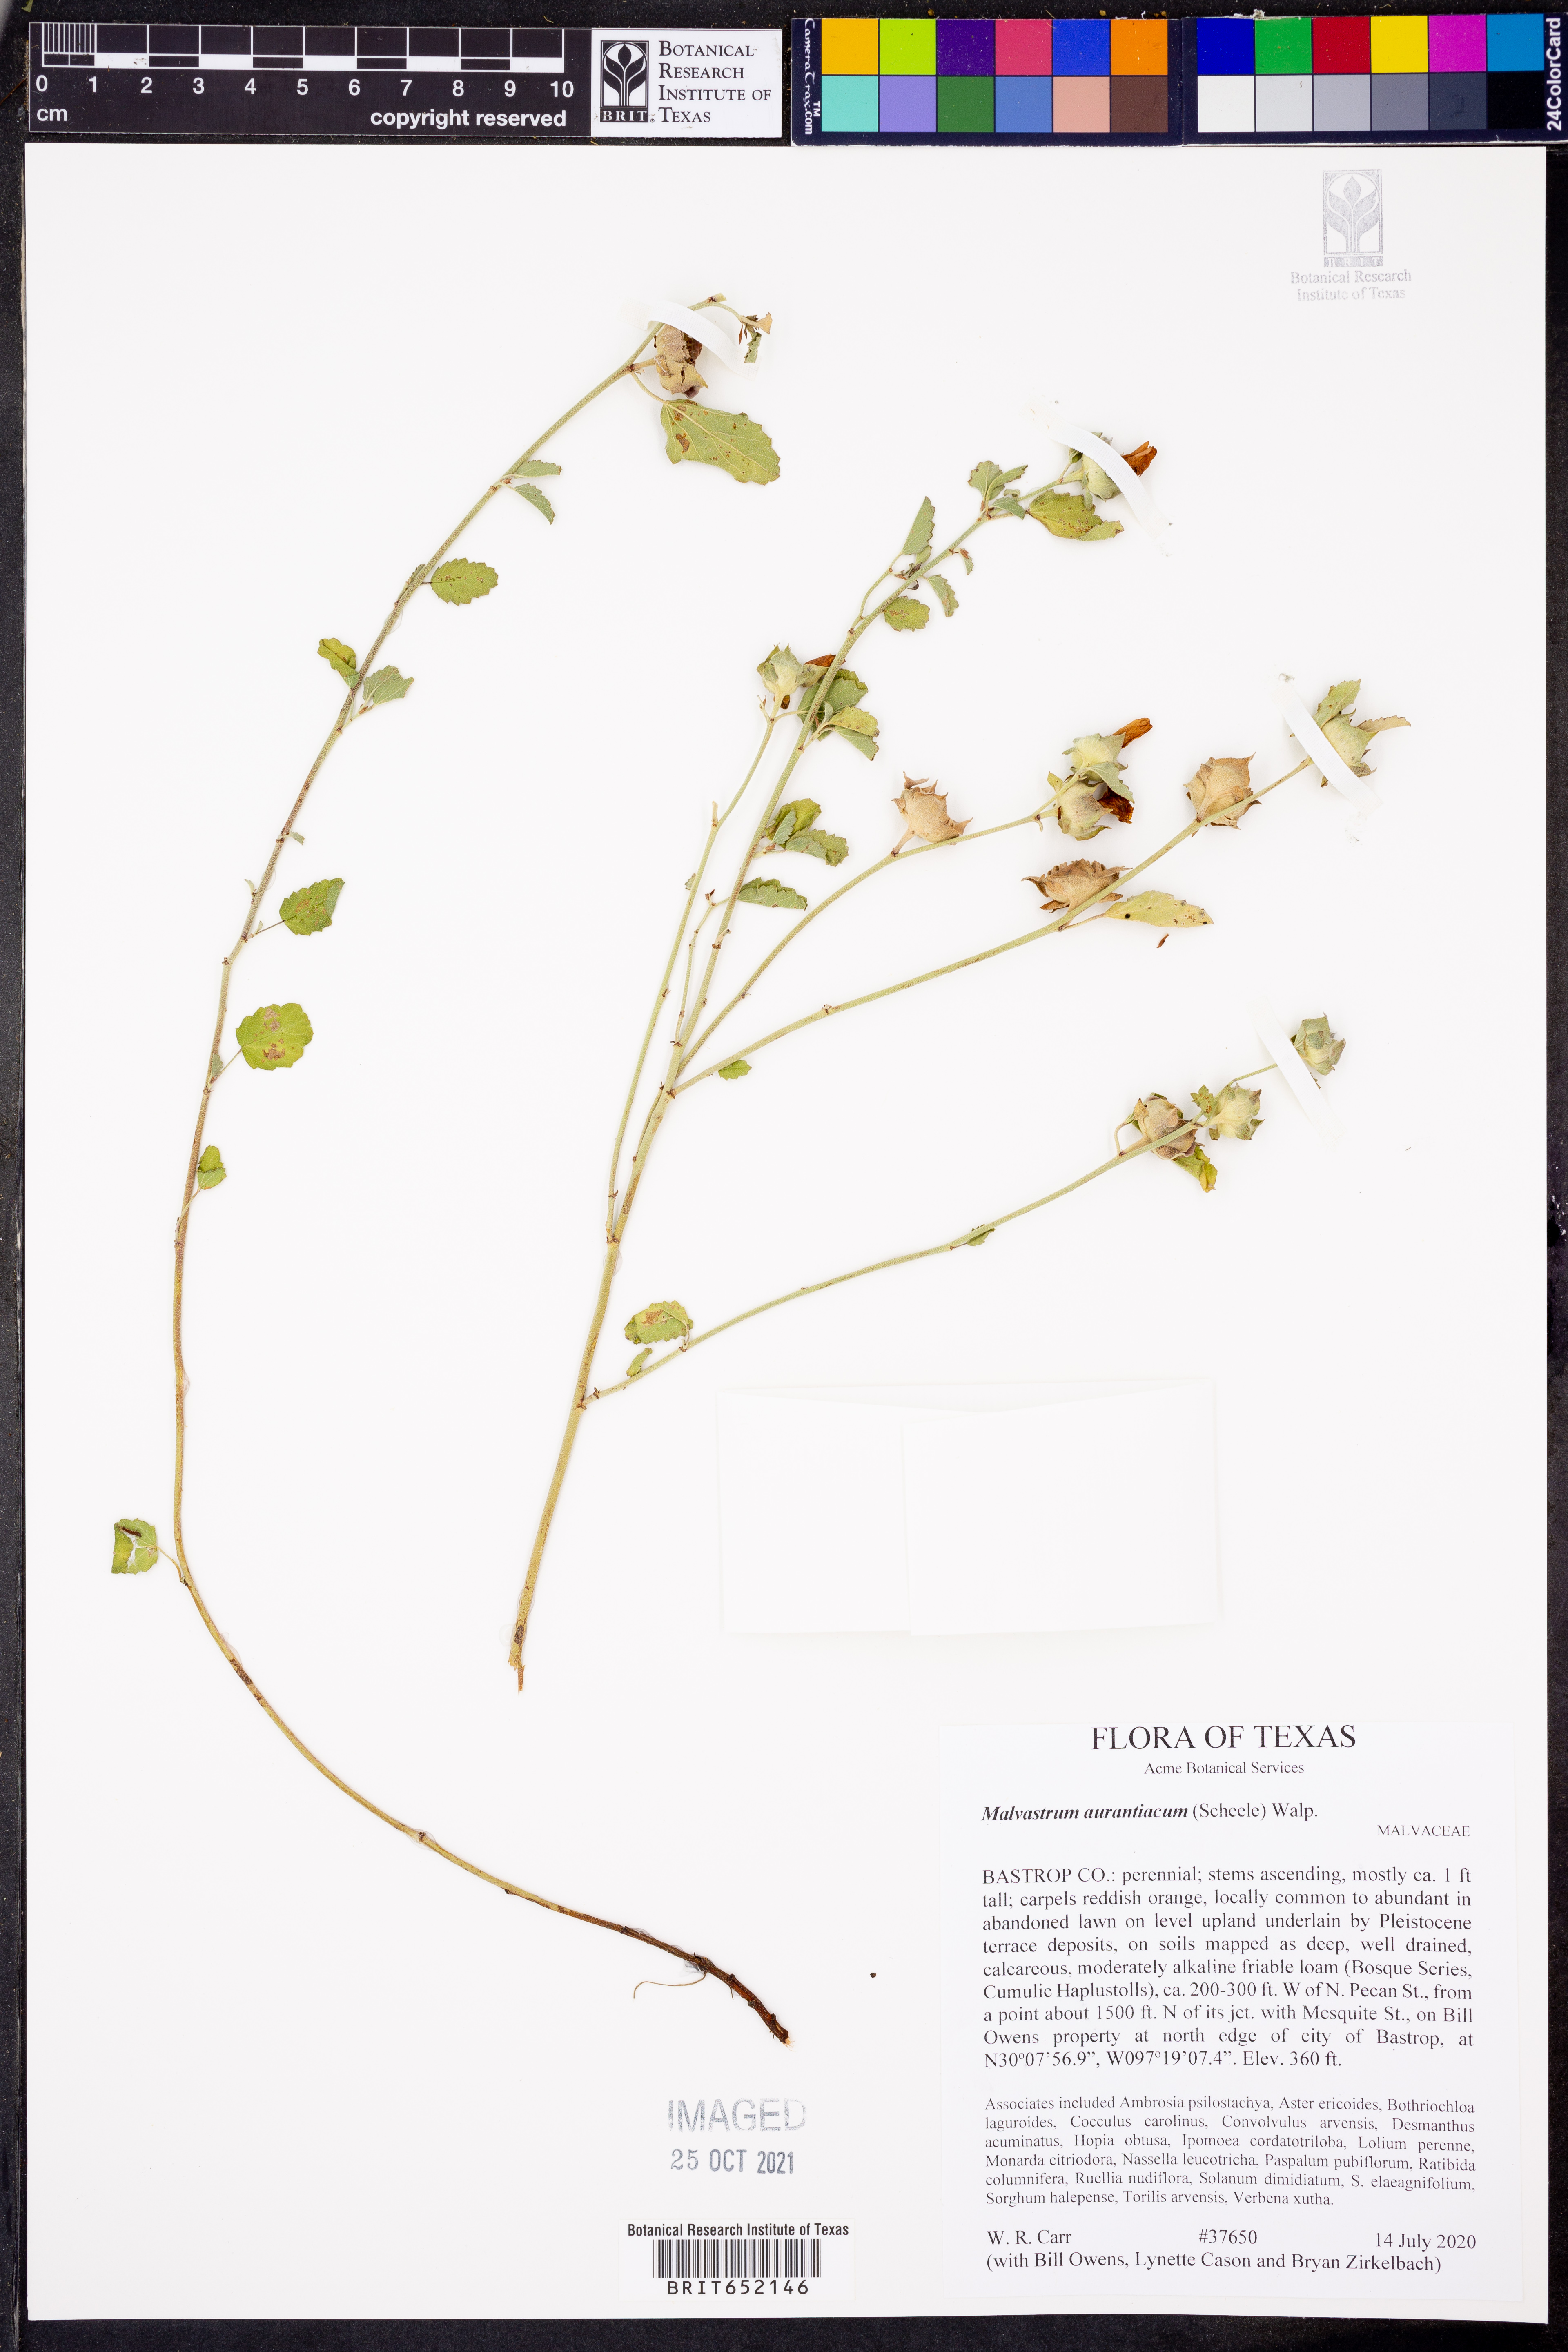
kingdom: Plantae
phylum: Tracheophyta
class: Magnoliopsida
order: Malvales
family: Malvaceae
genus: Malvastrum
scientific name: Malvastrum aurantiacum
